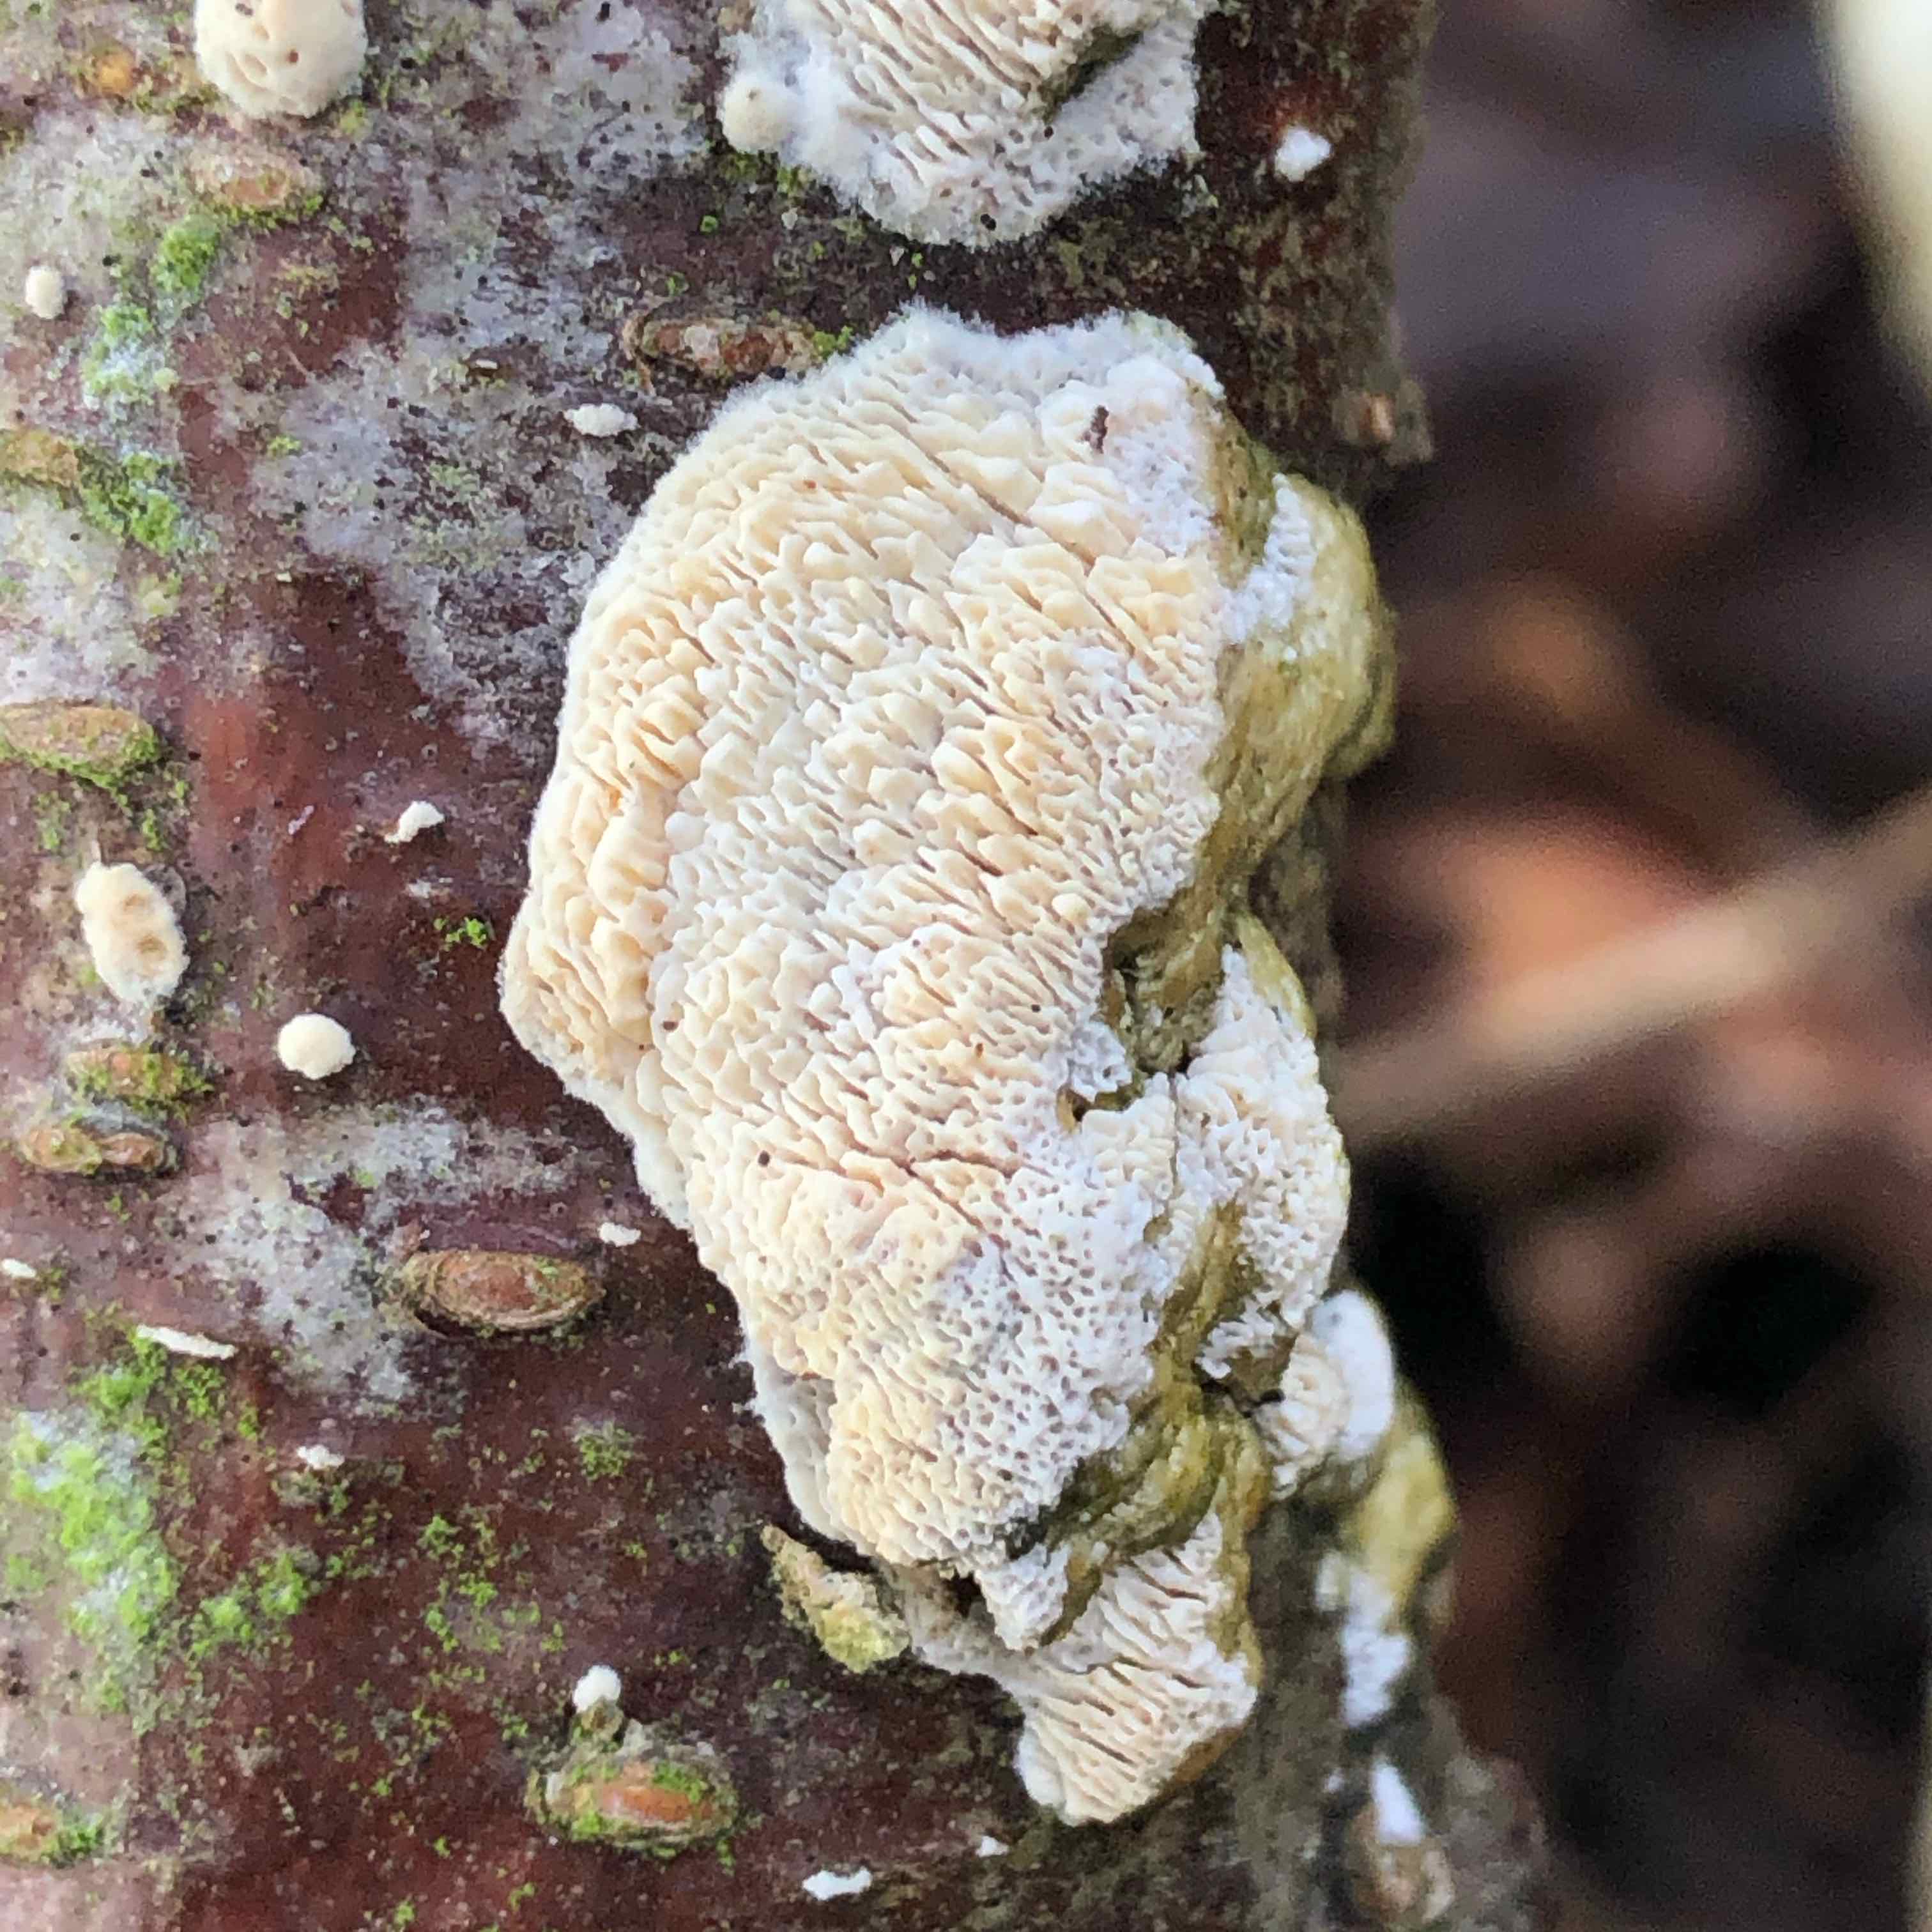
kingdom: Fungi
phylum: Basidiomycota
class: Agaricomycetes
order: Hymenochaetales
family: Schizoporaceae
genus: Xylodon
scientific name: Xylodon radula
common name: grovtandet kalkskind
